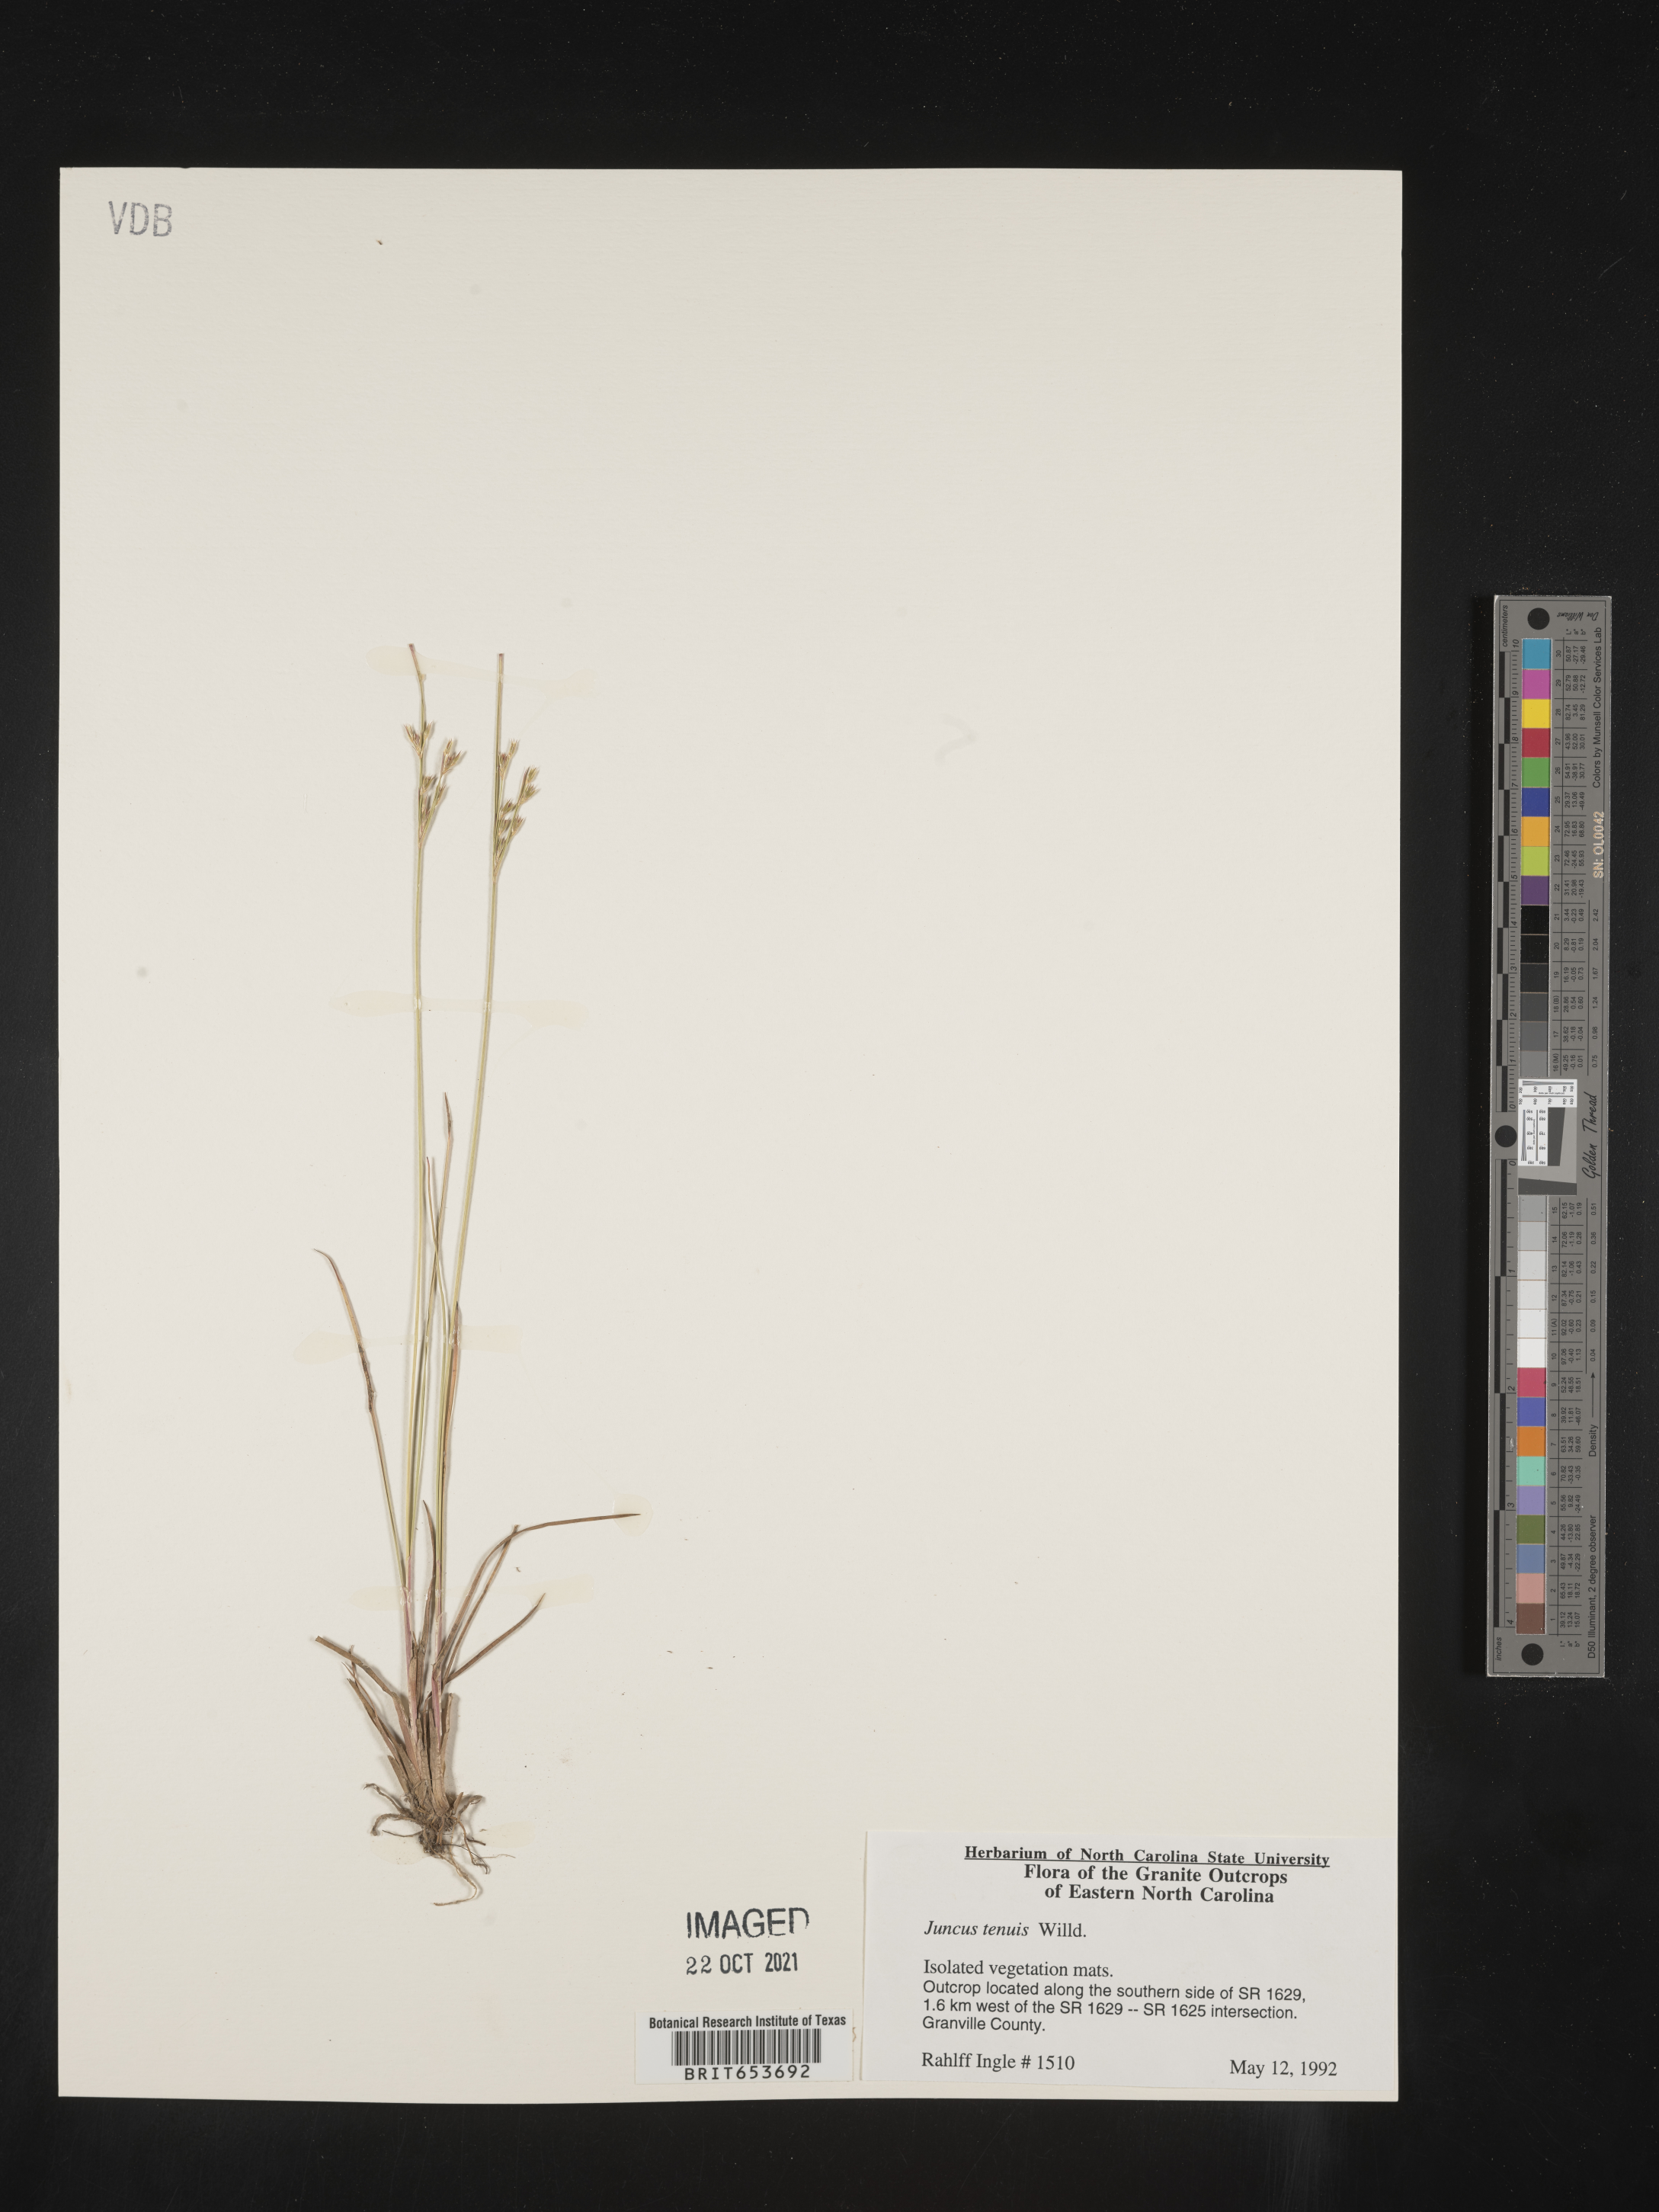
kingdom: Plantae
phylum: Tracheophyta
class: Liliopsida
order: Poales
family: Juncaceae
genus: Juncus
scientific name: Juncus tenuis
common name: Slender rush
